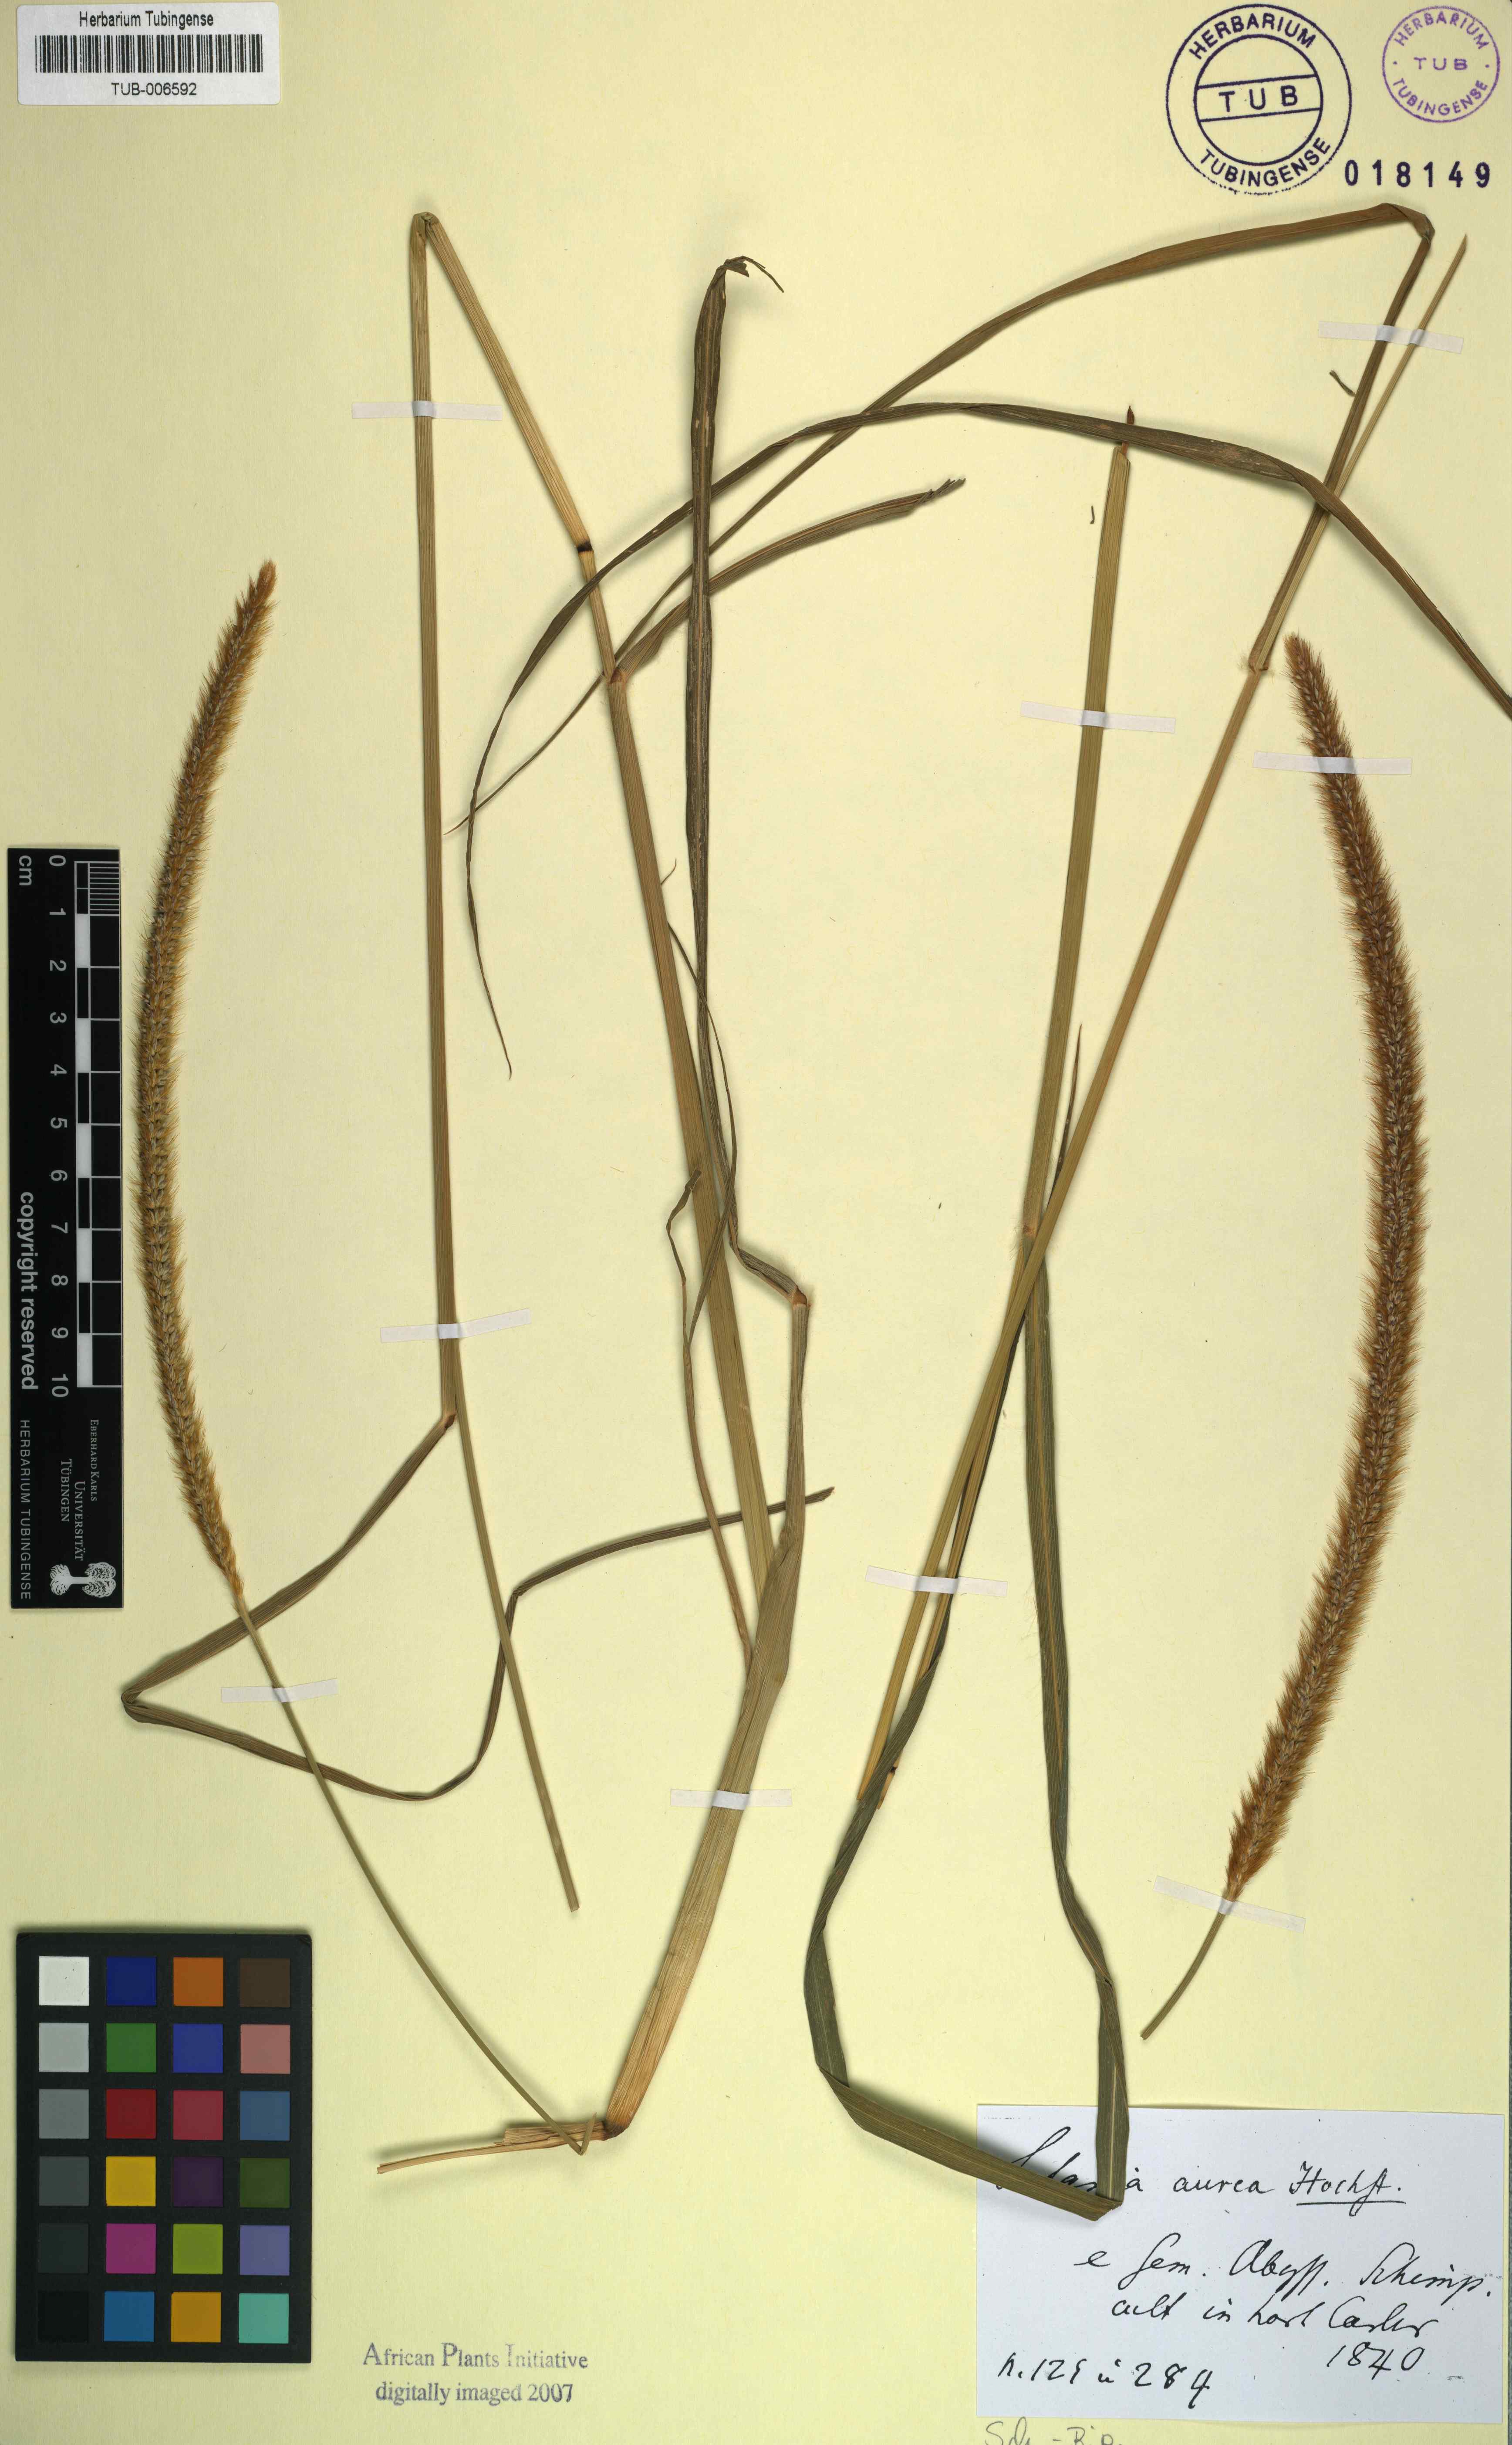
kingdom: Plantae
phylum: Tracheophyta
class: Liliopsida
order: Poales
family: Poaceae
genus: Setaria
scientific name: Setaria pumila
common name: Yellow bristle-grass
